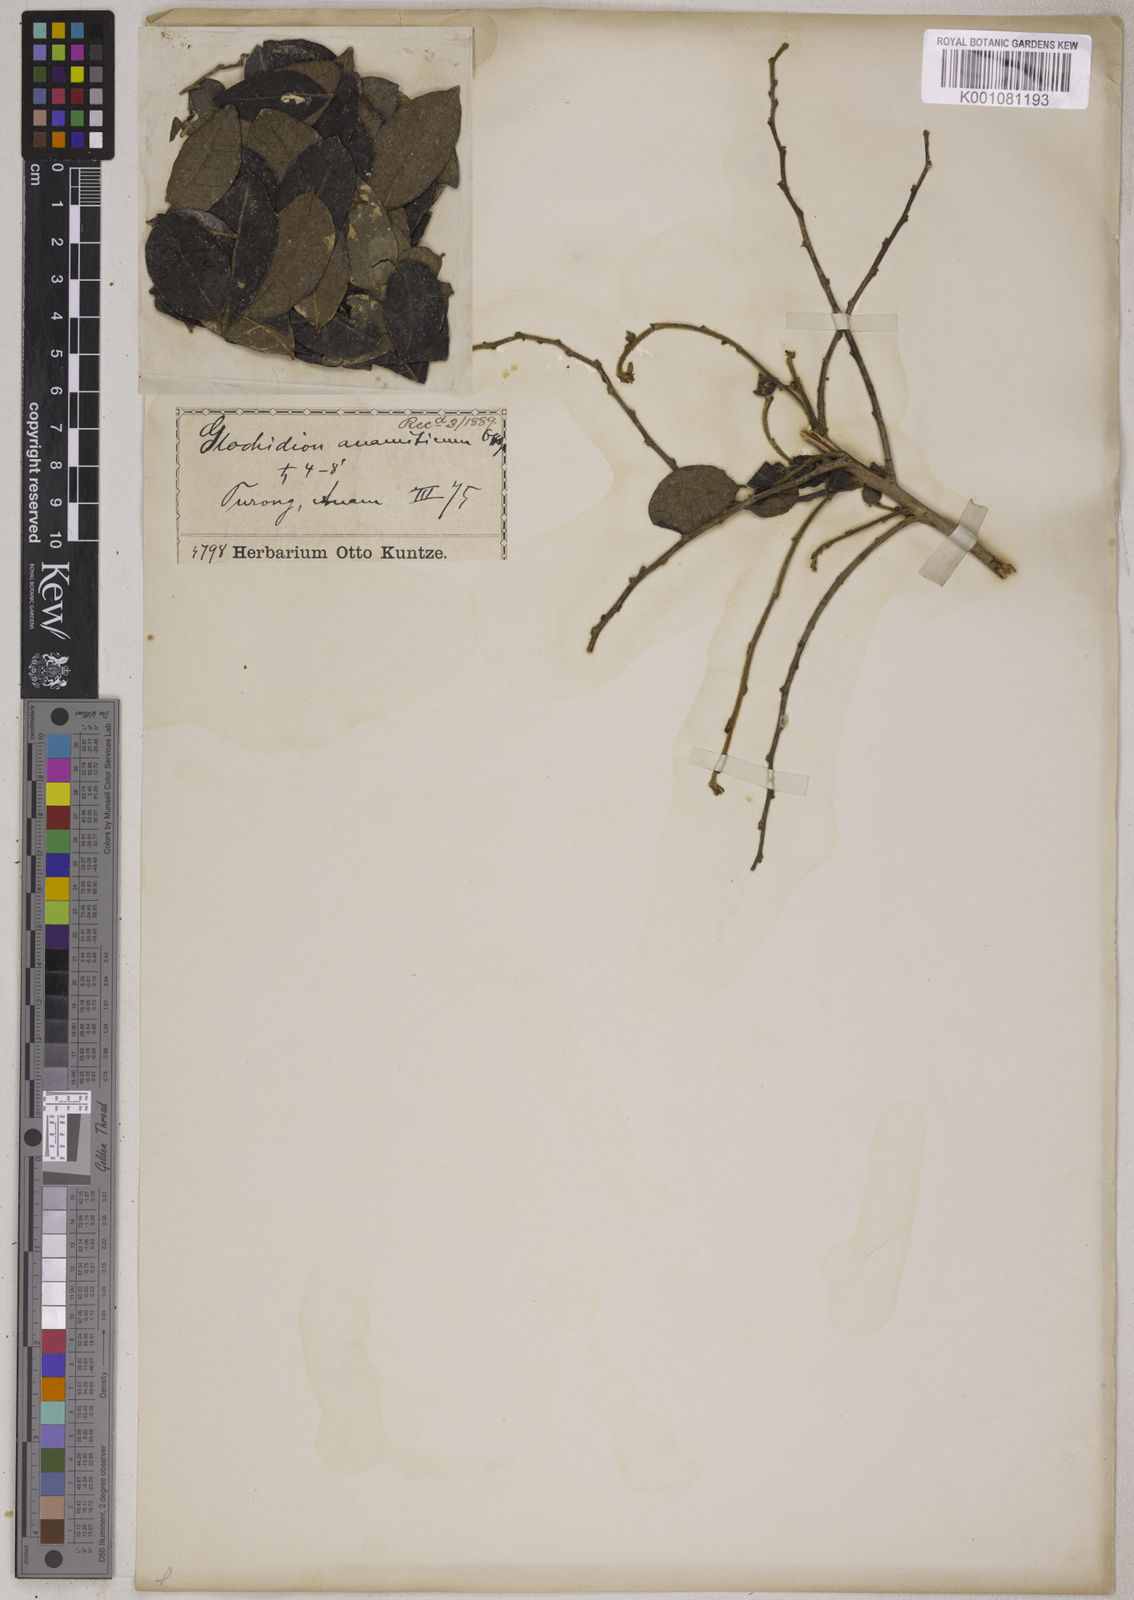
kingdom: Plantae
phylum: Tracheophyta
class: Magnoliopsida
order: Malpighiales
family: Phyllanthaceae
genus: Glochidion
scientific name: Glochidion anamiticum
